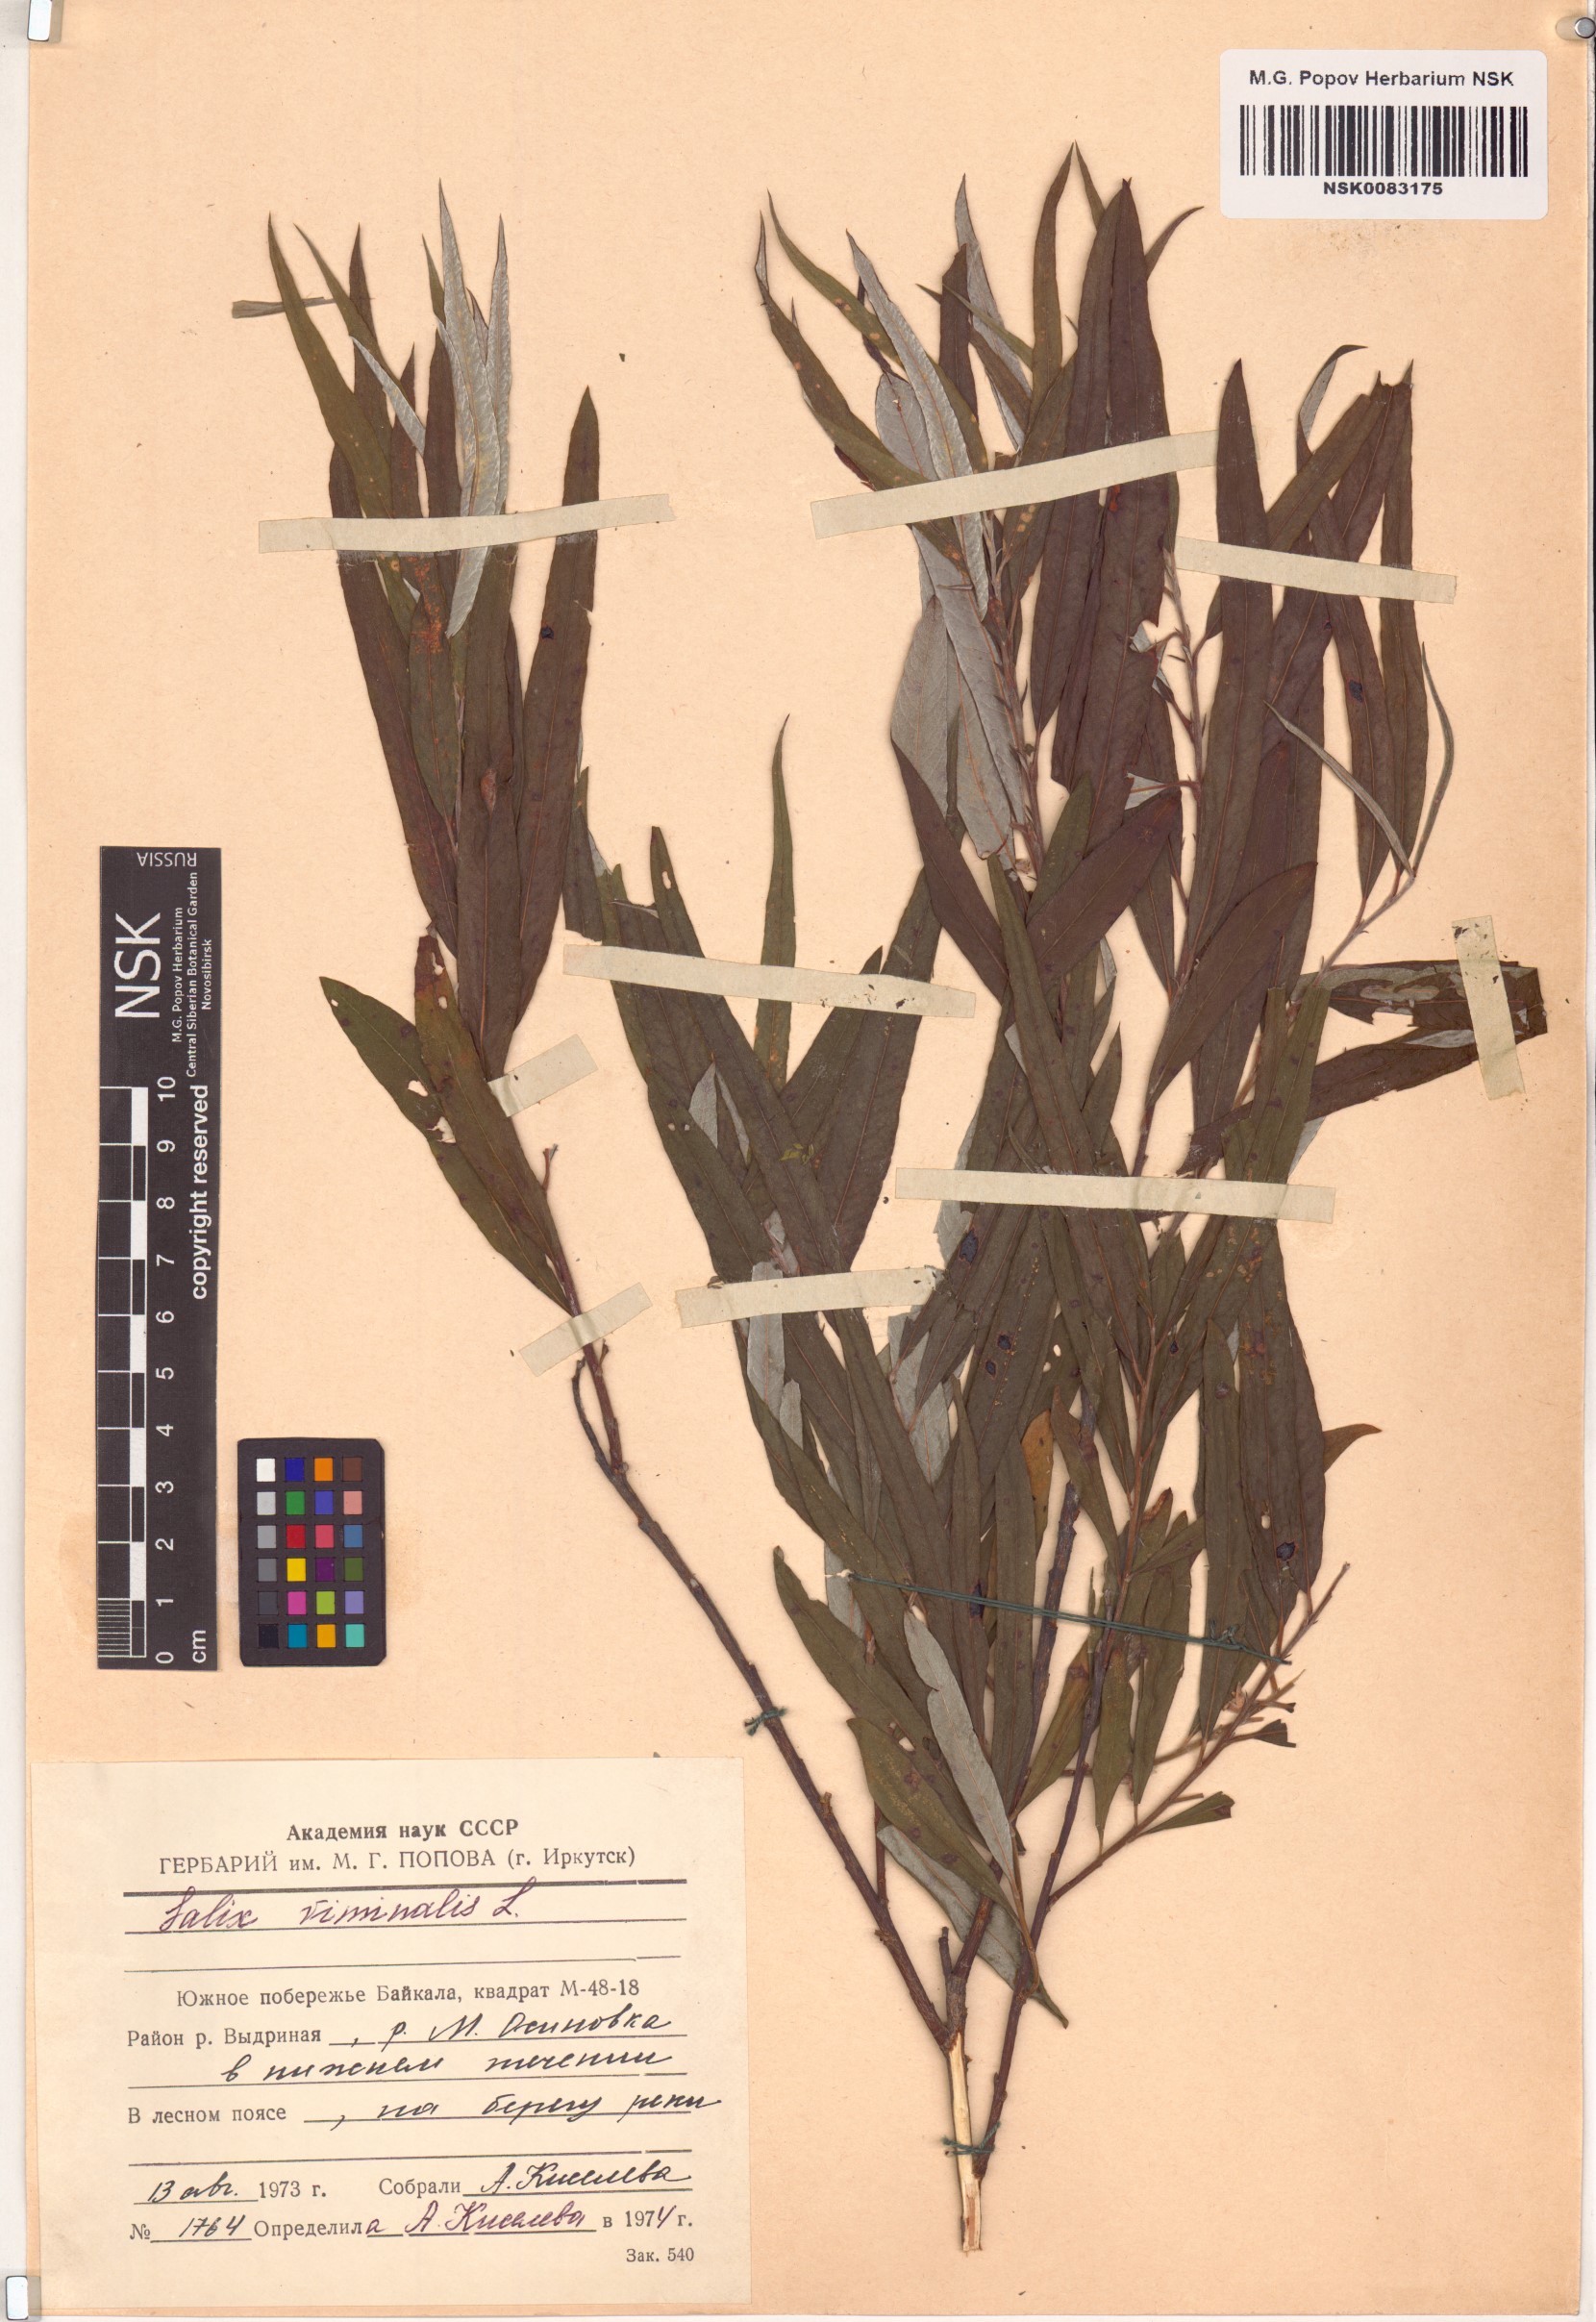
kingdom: Plantae
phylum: Tracheophyta
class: Magnoliopsida
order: Malpighiales
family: Salicaceae
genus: Salix
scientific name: Salix viminalis
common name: Osier
